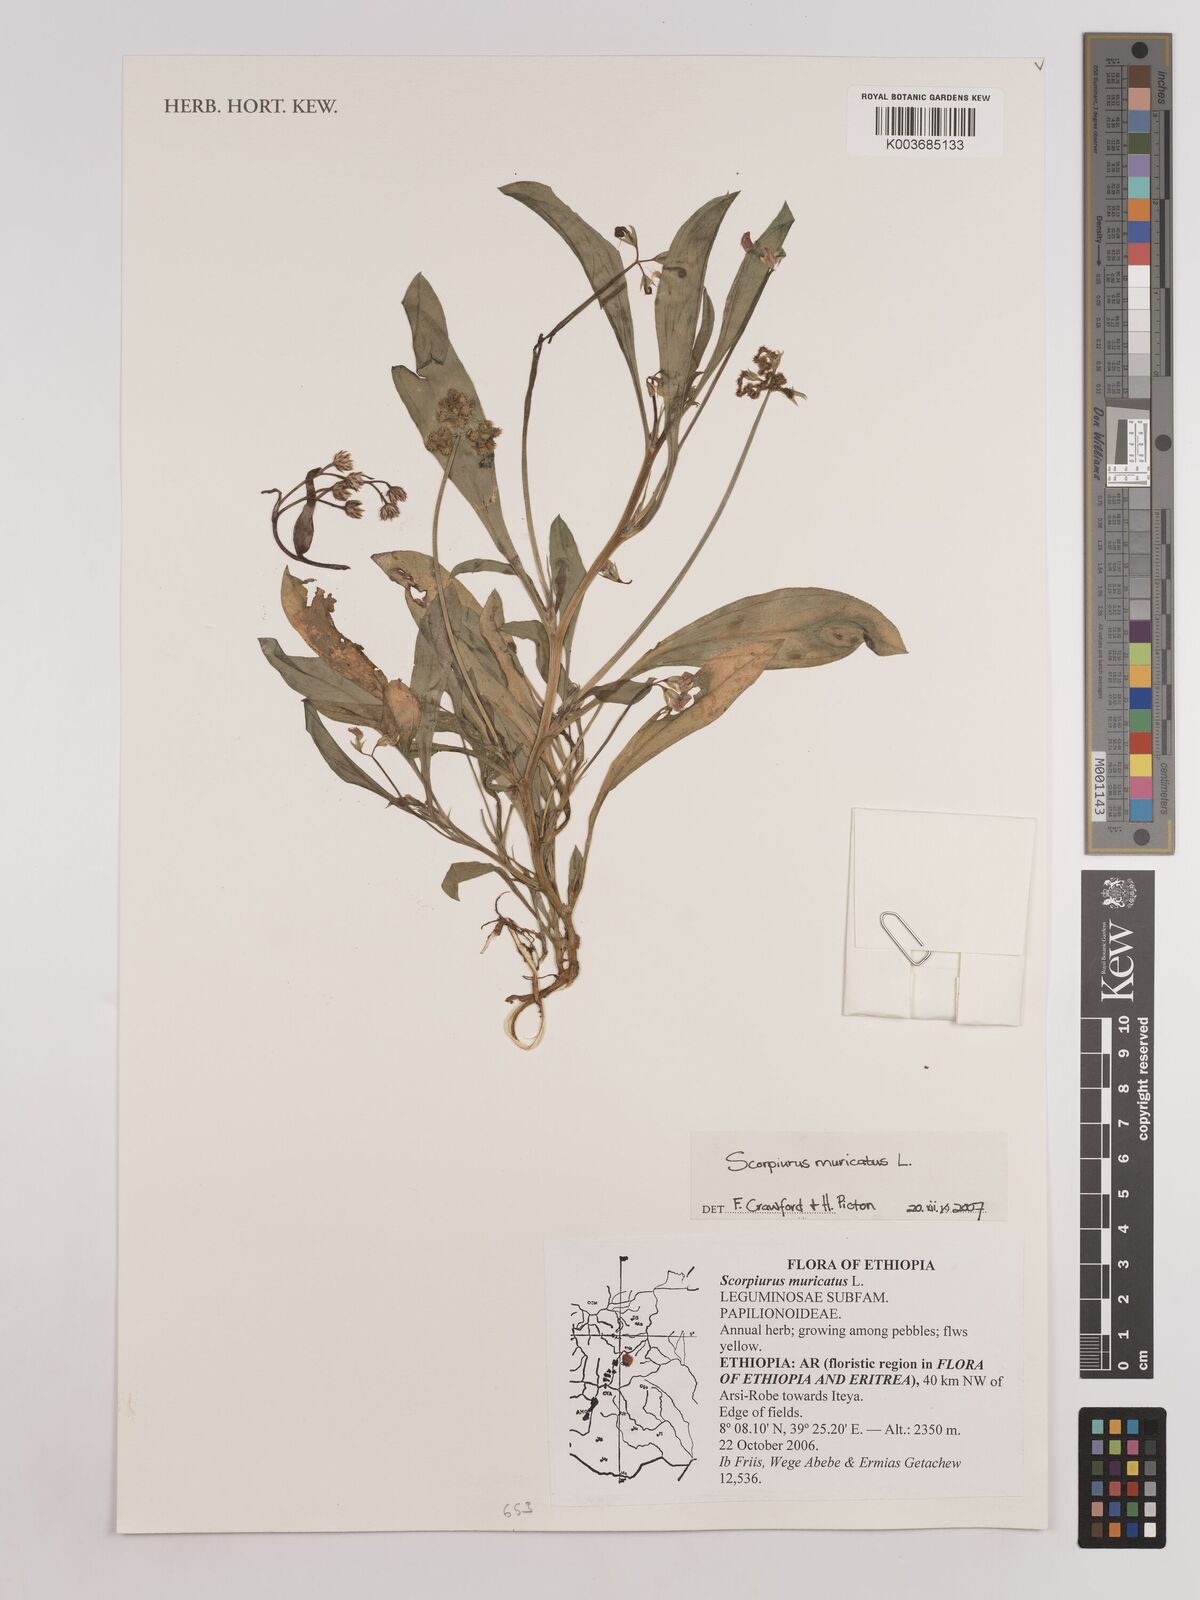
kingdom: Plantae
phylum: Tracheophyta
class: Magnoliopsida
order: Fabales
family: Fabaceae
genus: Scorpiurus
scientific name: Scorpiurus muricatus
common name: Caterpillar-plant
